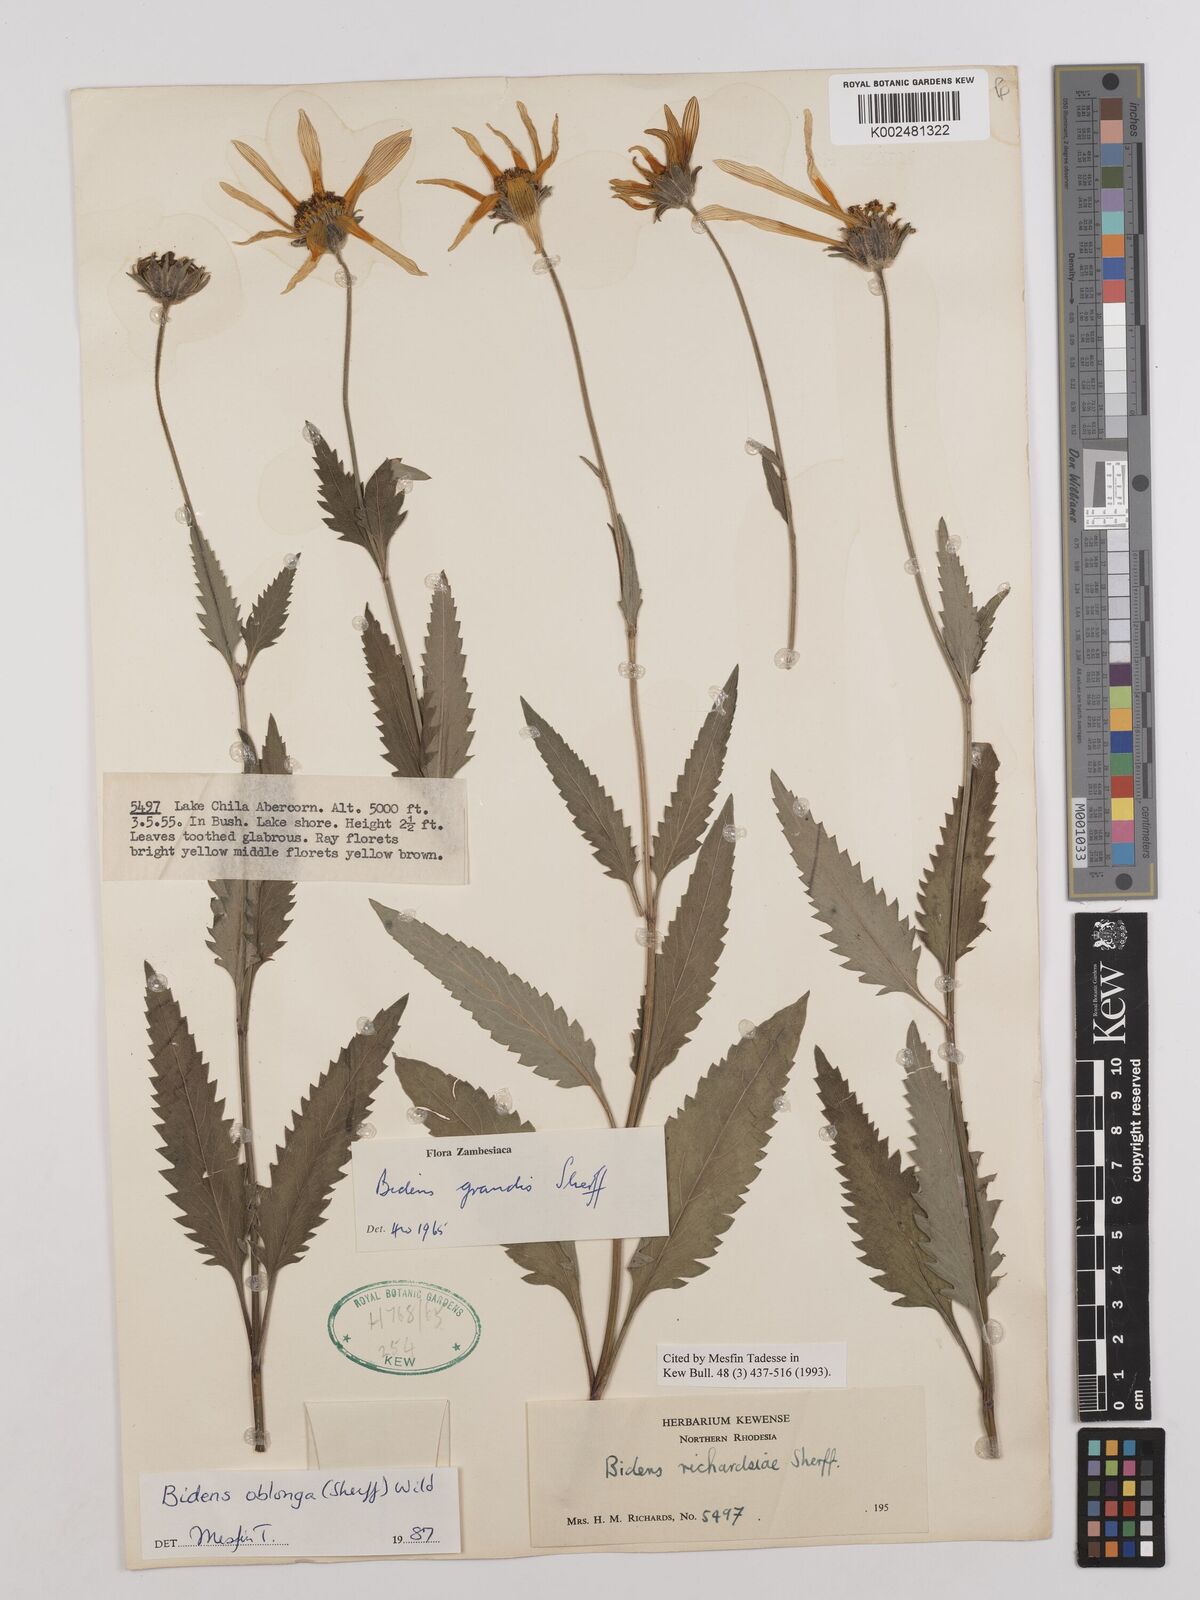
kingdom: Plantae
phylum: Tracheophyta
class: Magnoliopsida
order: Asterales
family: Asteraceae
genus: Bidens
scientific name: Bidens oblonga
